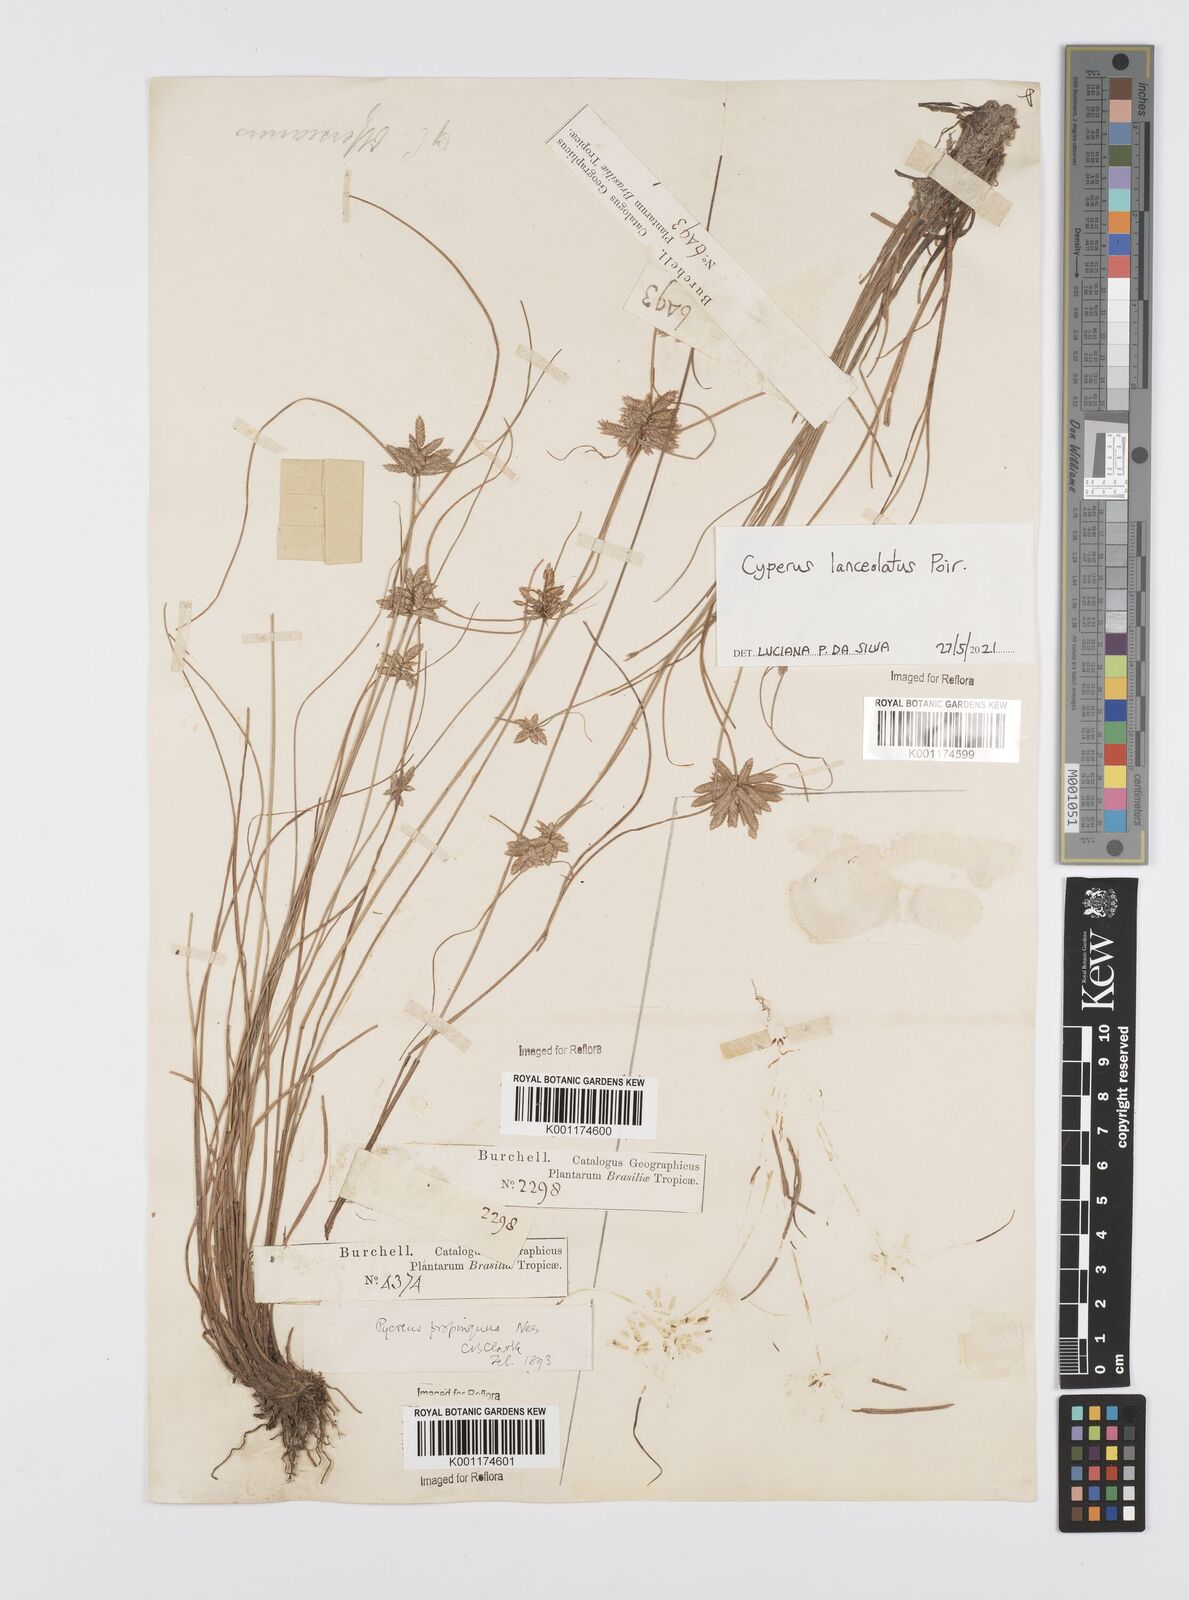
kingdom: Plantae
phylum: Tracheophyta
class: Liliopsida
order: Poales
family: Cyperaceae
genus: Cyperus
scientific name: Cyperus lanceolatus
